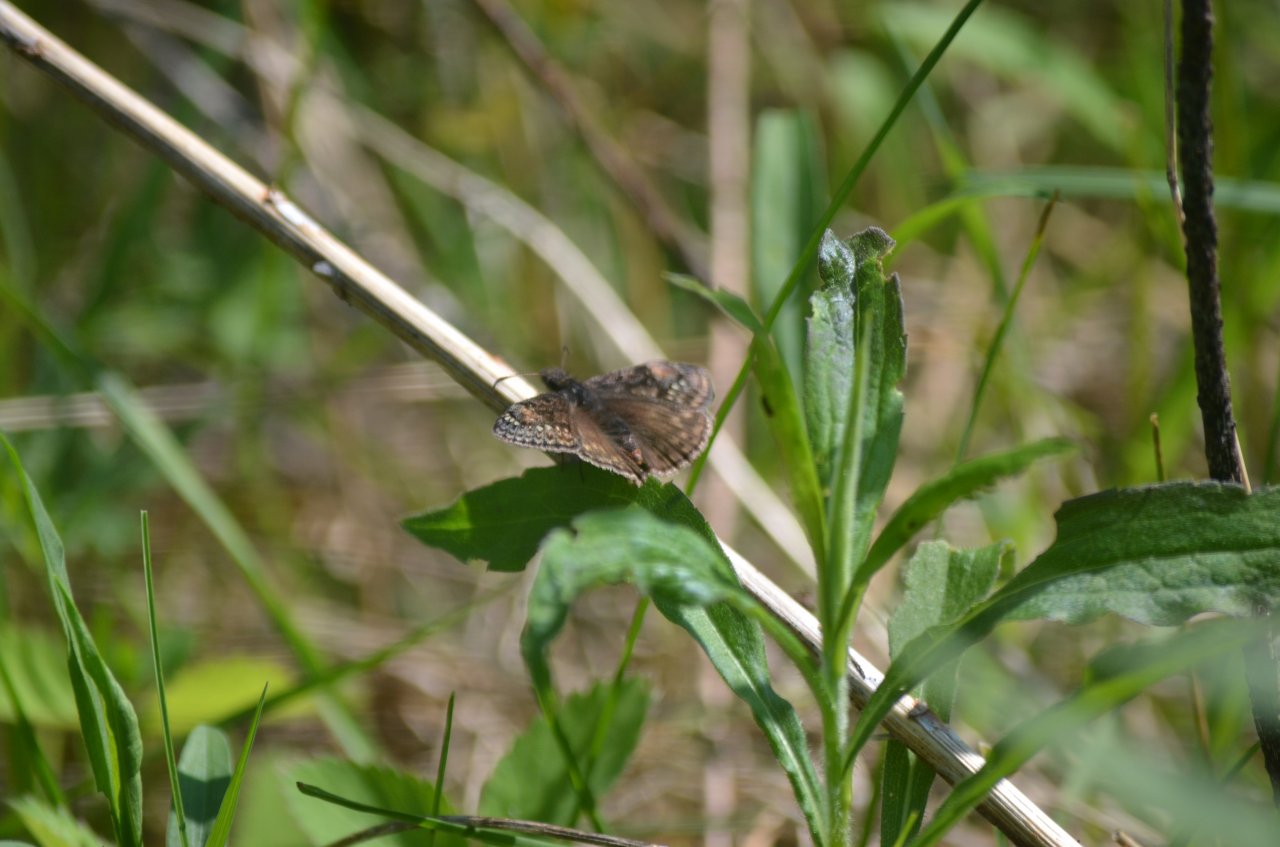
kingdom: Animalia
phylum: Arthropoda
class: Insecta
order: Lepidoptera
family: Hesperiidae
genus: Gesta
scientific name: Gesta
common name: Juvenal's Duskywing
